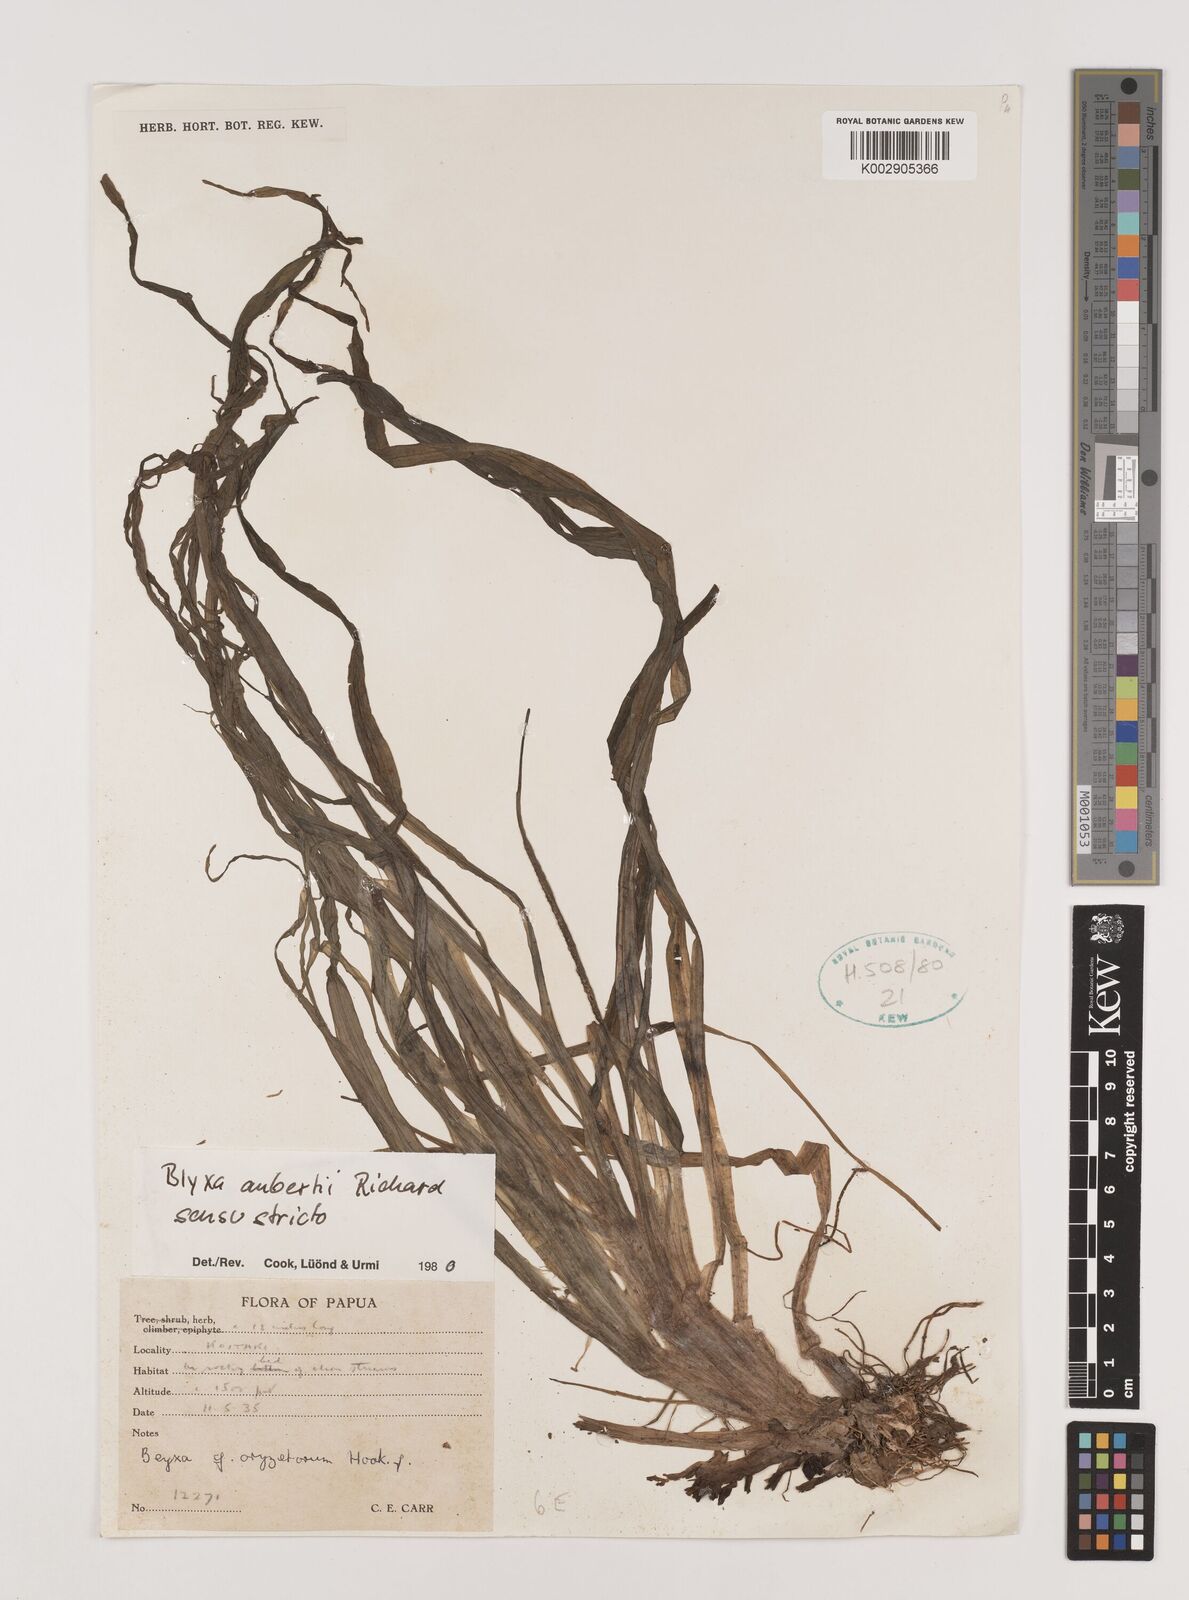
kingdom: Plantae
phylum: Tracheophyta
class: Liliopsida
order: Alismatales
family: Hydrocharitaceae
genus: Blyxa
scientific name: Blyxa aubertii
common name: Roundfruit blyxa
